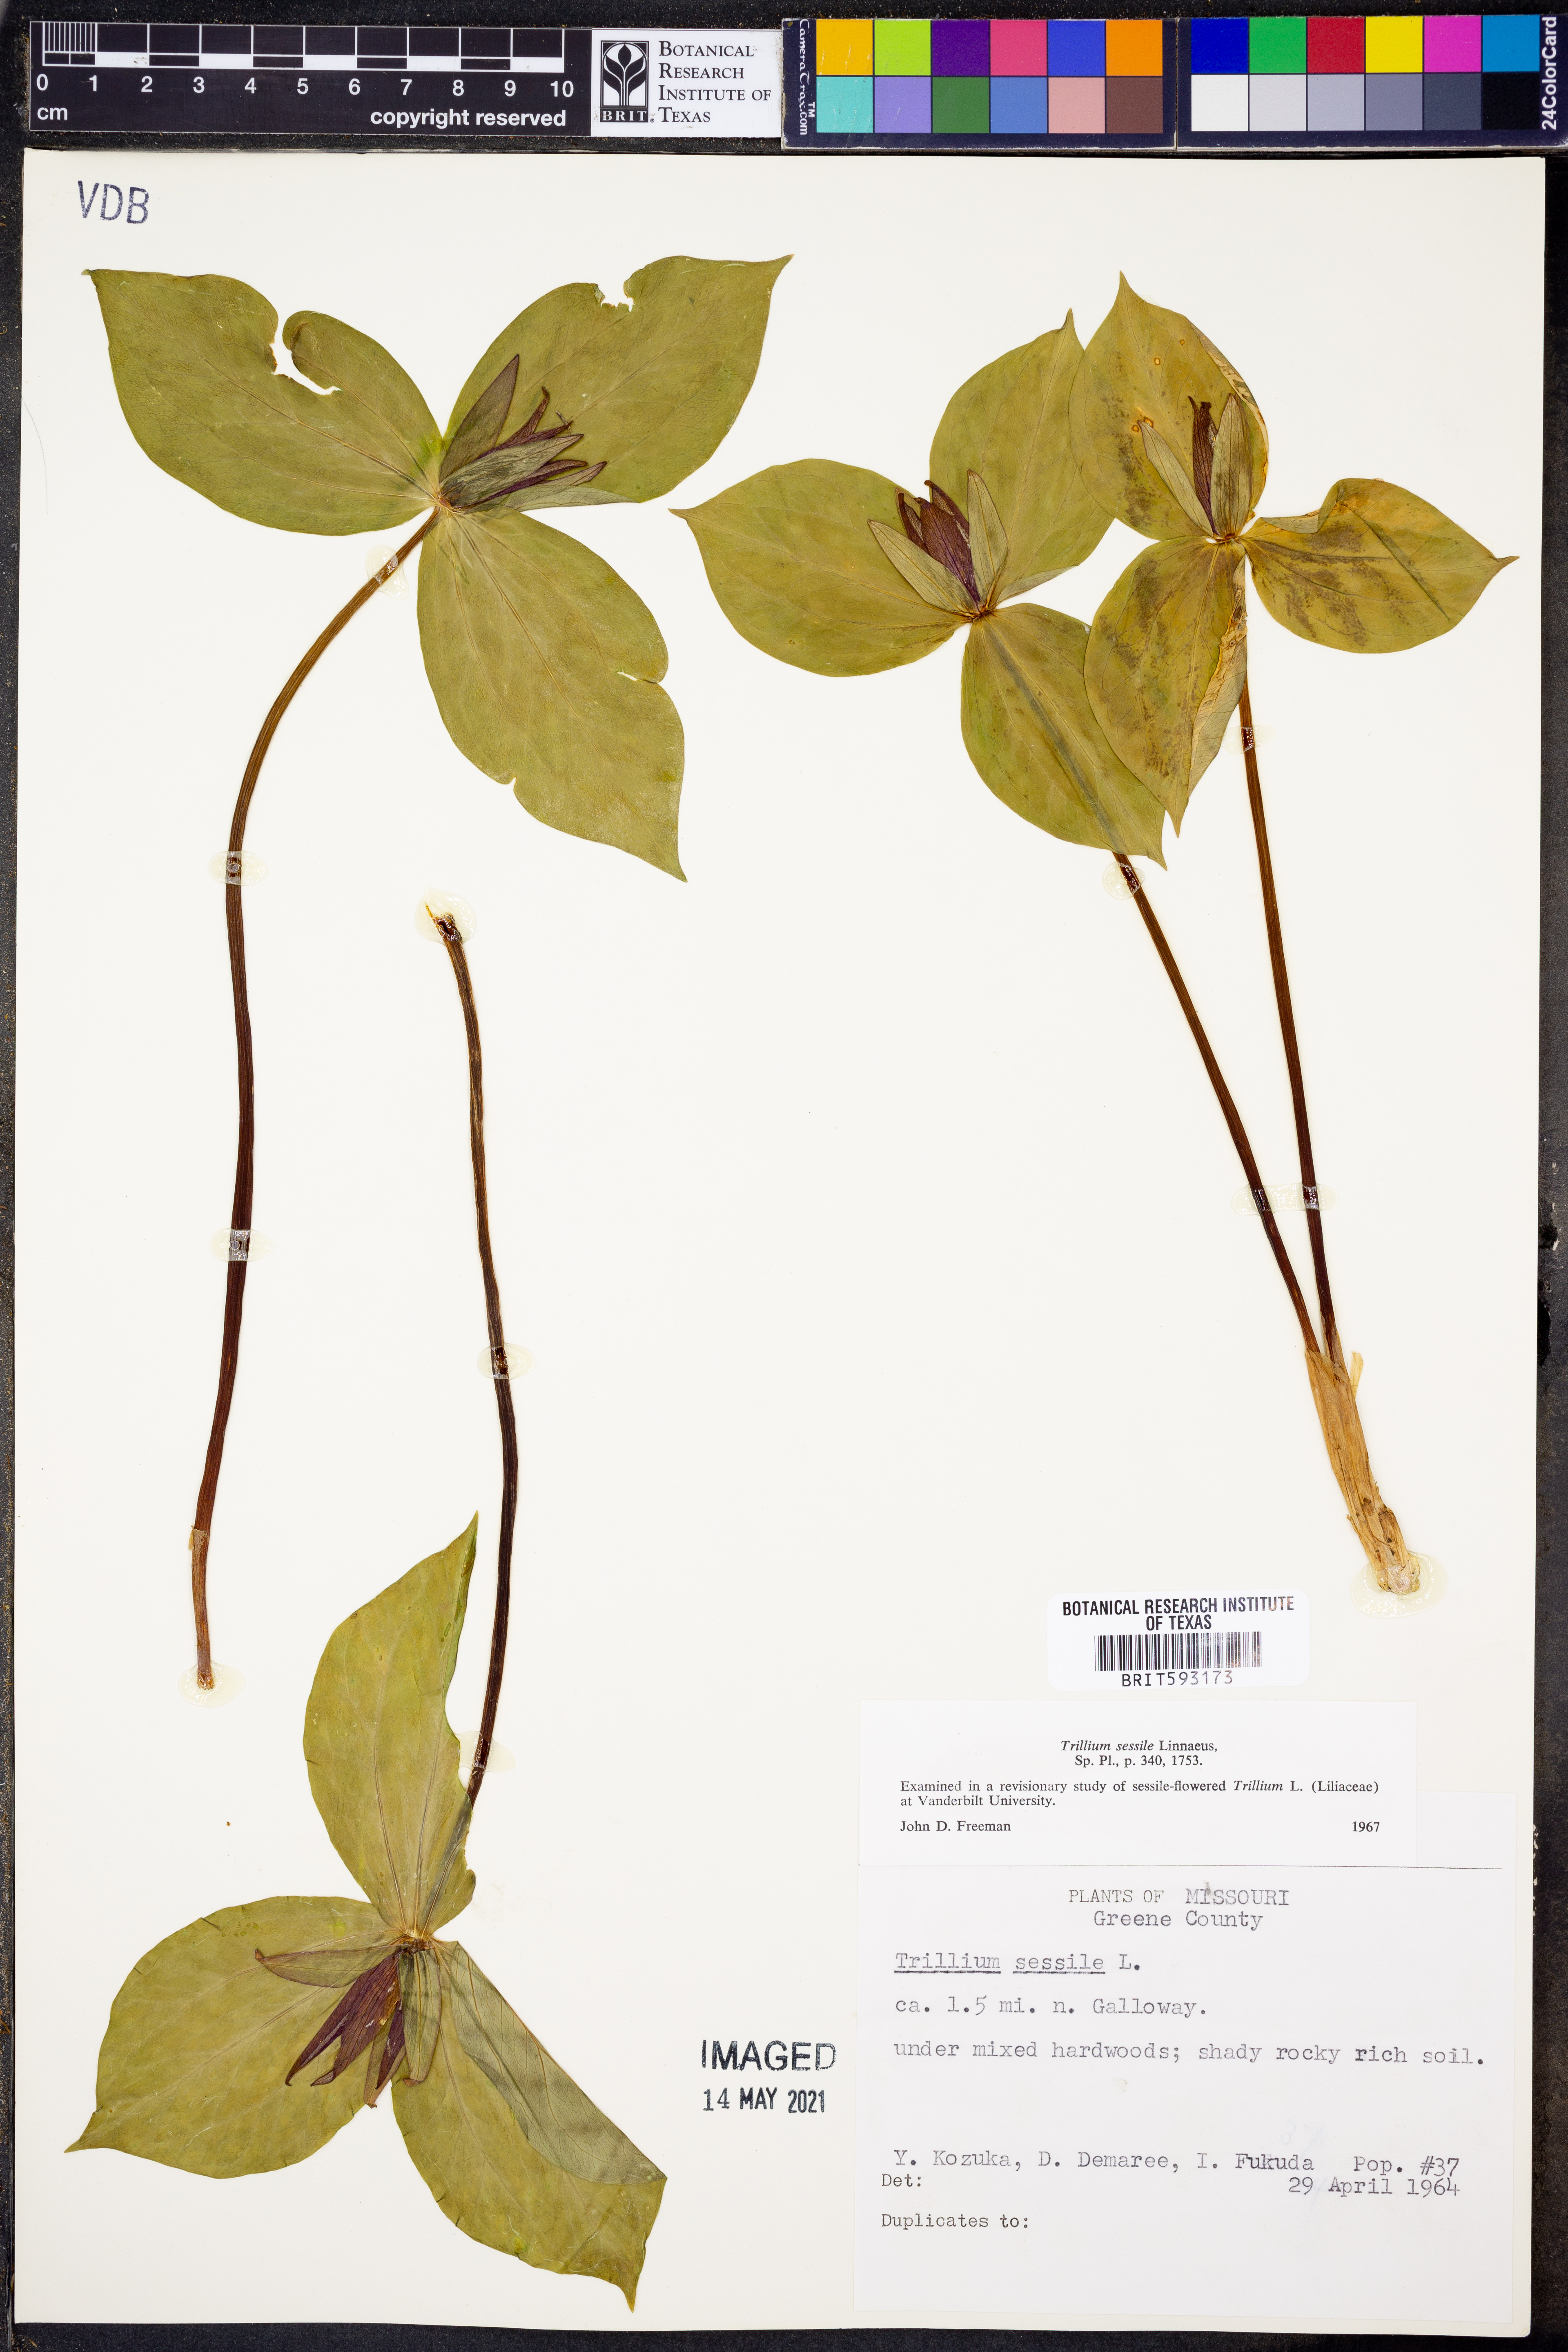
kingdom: Plantae
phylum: Tracheophyta
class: Liliopsida
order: Liliales
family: Melanthiaceae
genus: Trillium
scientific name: Trillium sessile
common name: Sessile trillium
